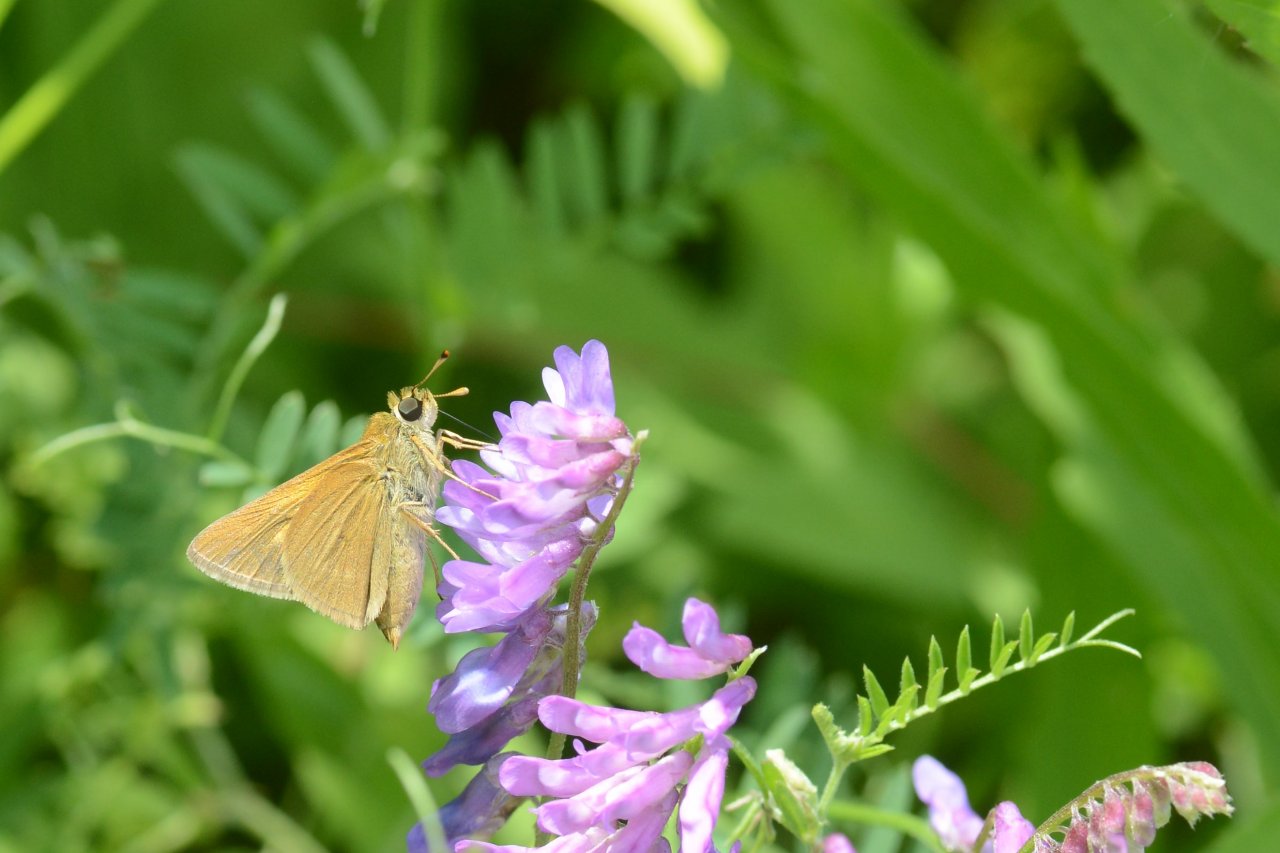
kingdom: Animalia
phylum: Arthropoda
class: Insecta
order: Lepidoptera
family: Hesperiidae
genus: Polites
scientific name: Polites
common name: Crossline Skipper
